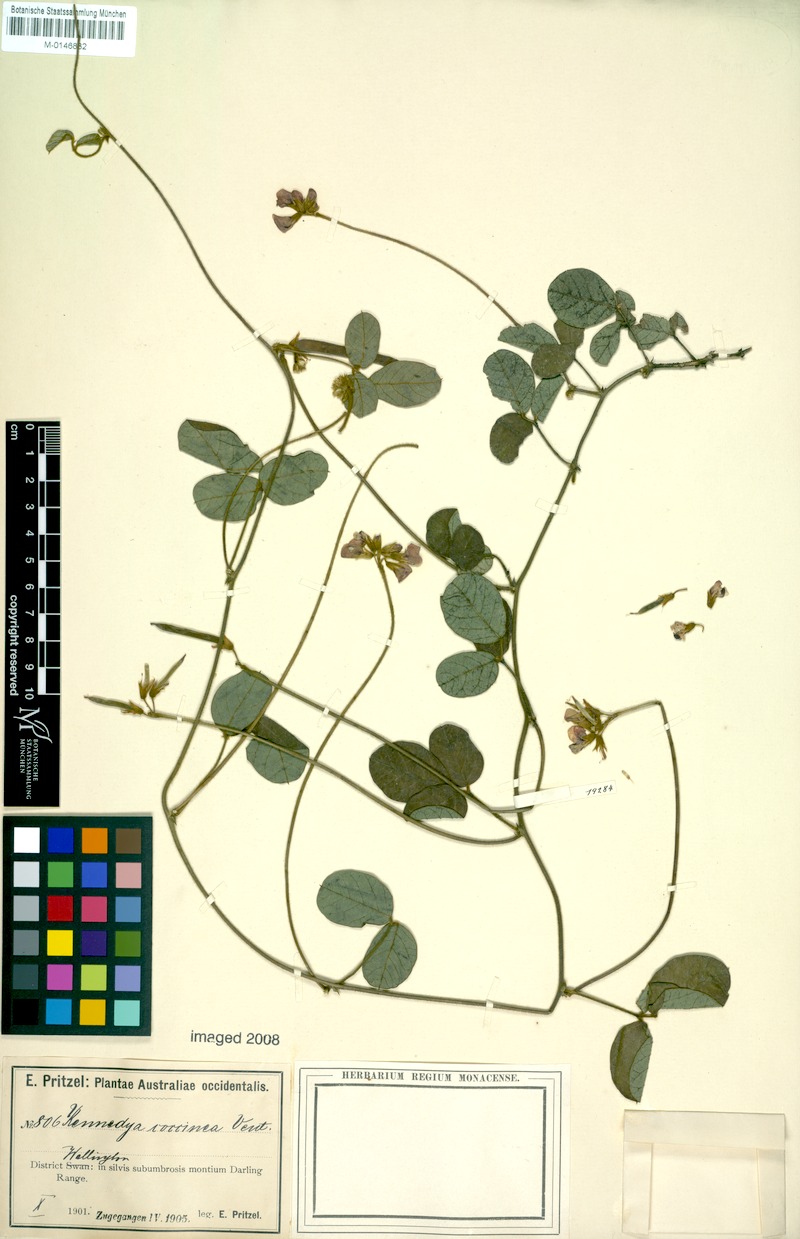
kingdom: Plantae
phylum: Tracheophyta
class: Magnoliopsida
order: Fabales
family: Fabaceae
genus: Kennedia
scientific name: Kennedia coccinea
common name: Coralvine
